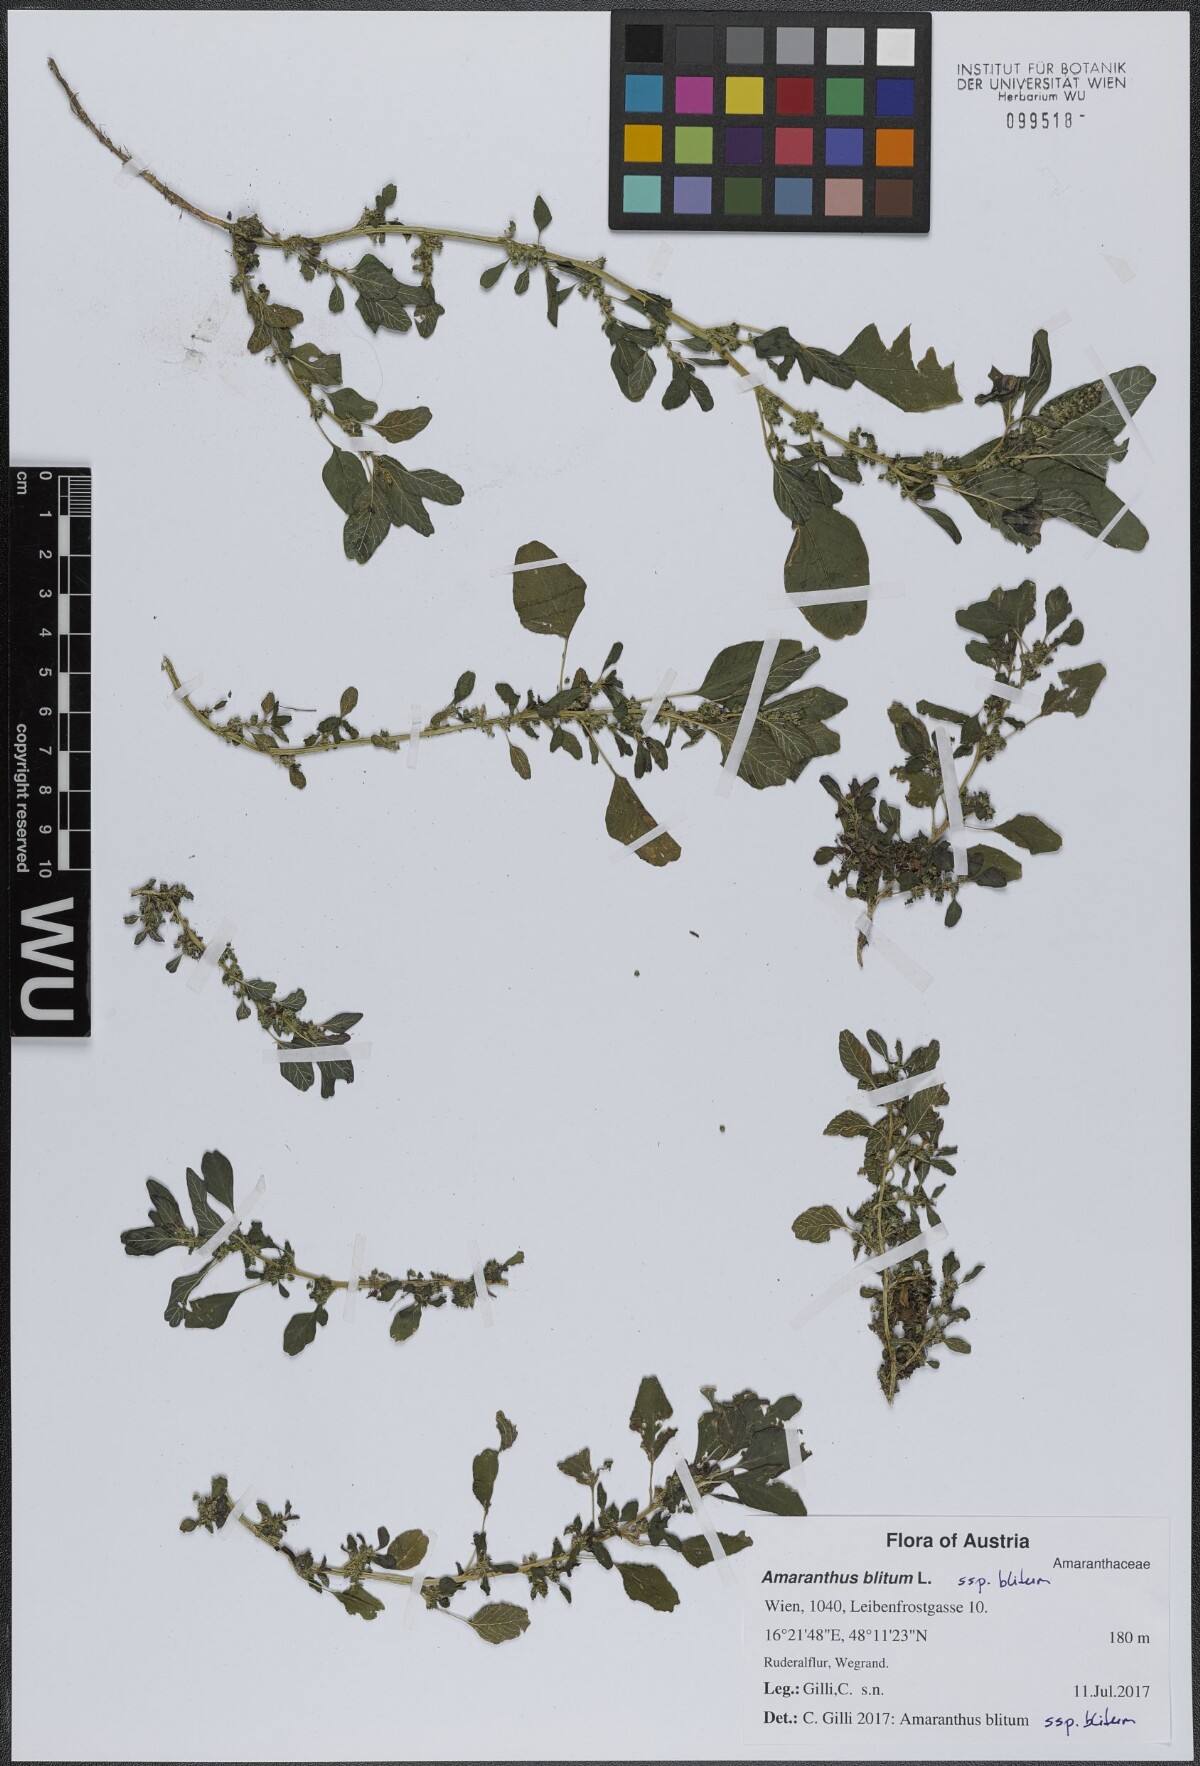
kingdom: Plantae
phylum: Tracheophyta
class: Magnoliopsida
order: Caryophyllales
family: Amaranthaceae
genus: Amaranthus
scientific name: Amaranthus blitum
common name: Purple amaranth
